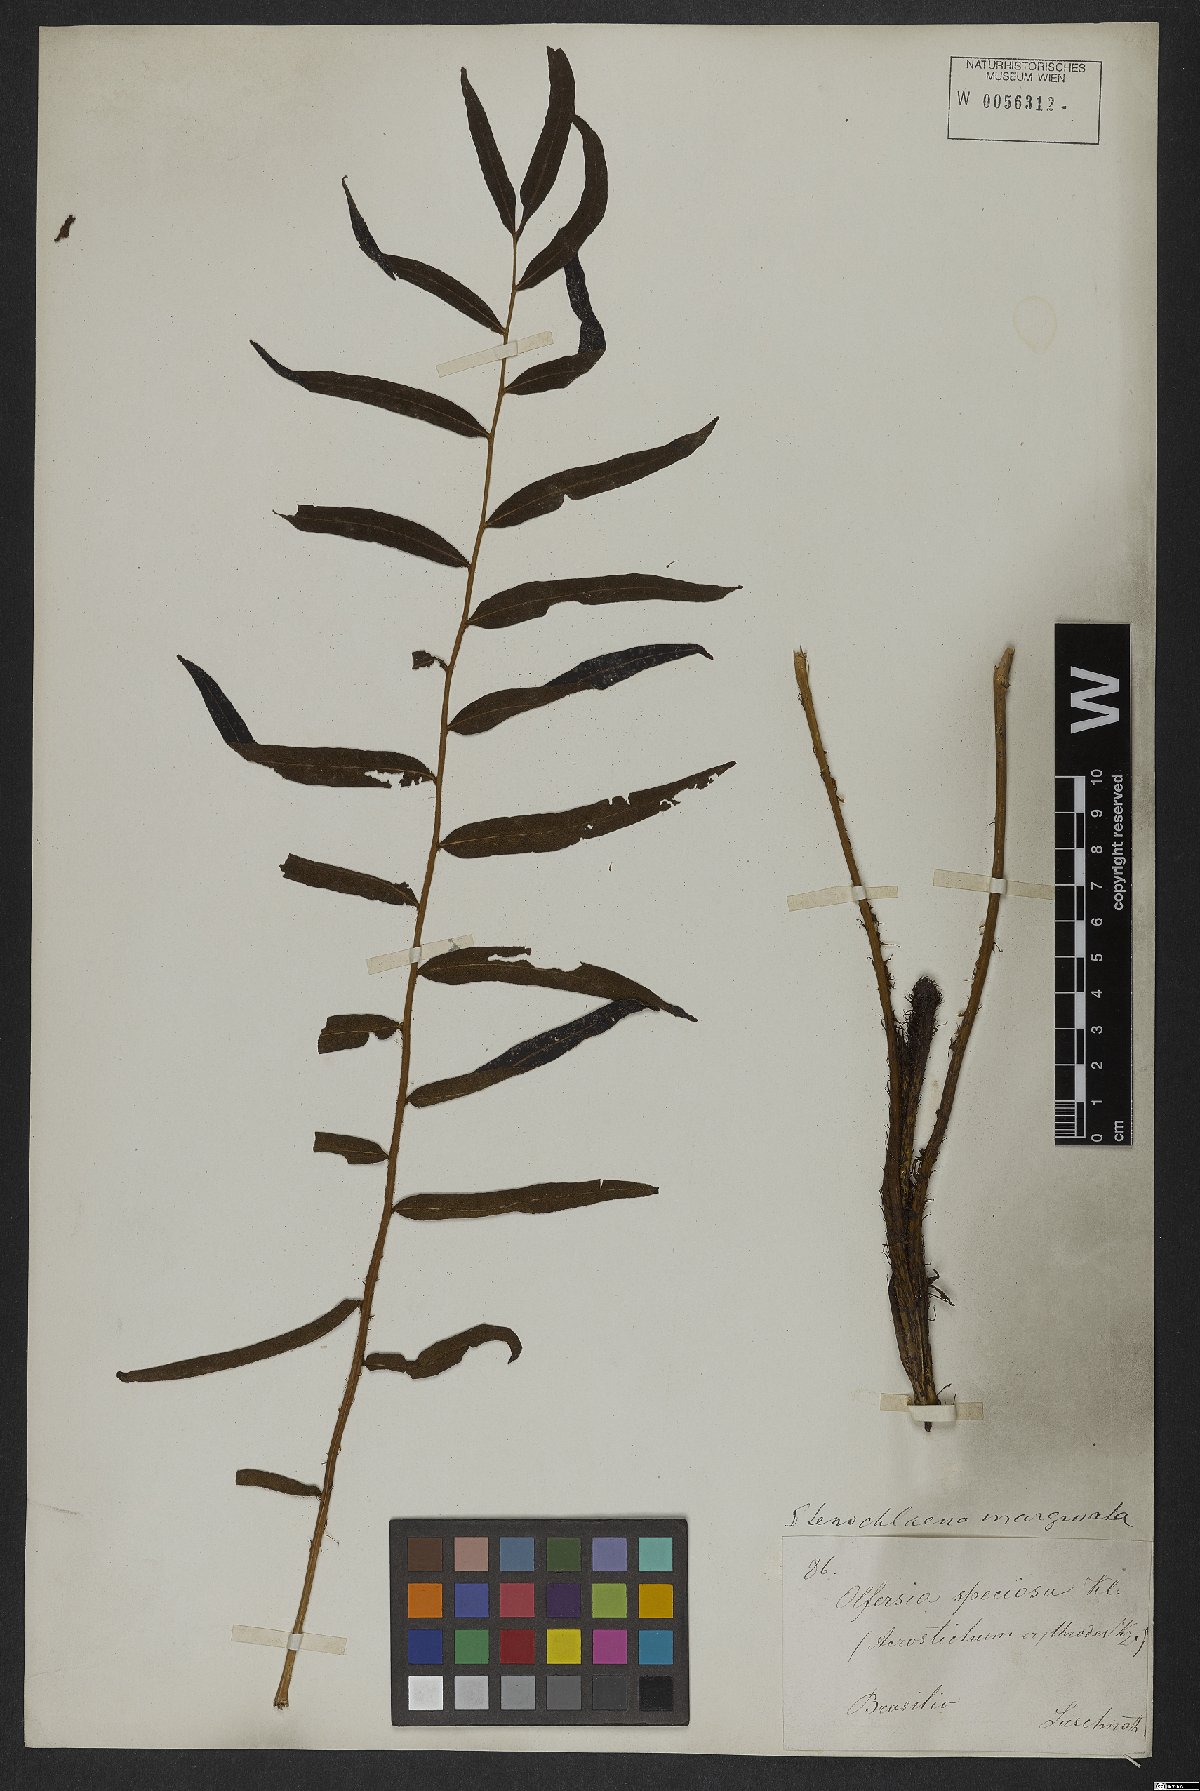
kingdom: Plantae
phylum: Tracheophyta
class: Polypodiopsida
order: Polypodiales
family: Lomariopsidaceae
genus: Lomariopsis
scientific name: Lomariopsis marginata
